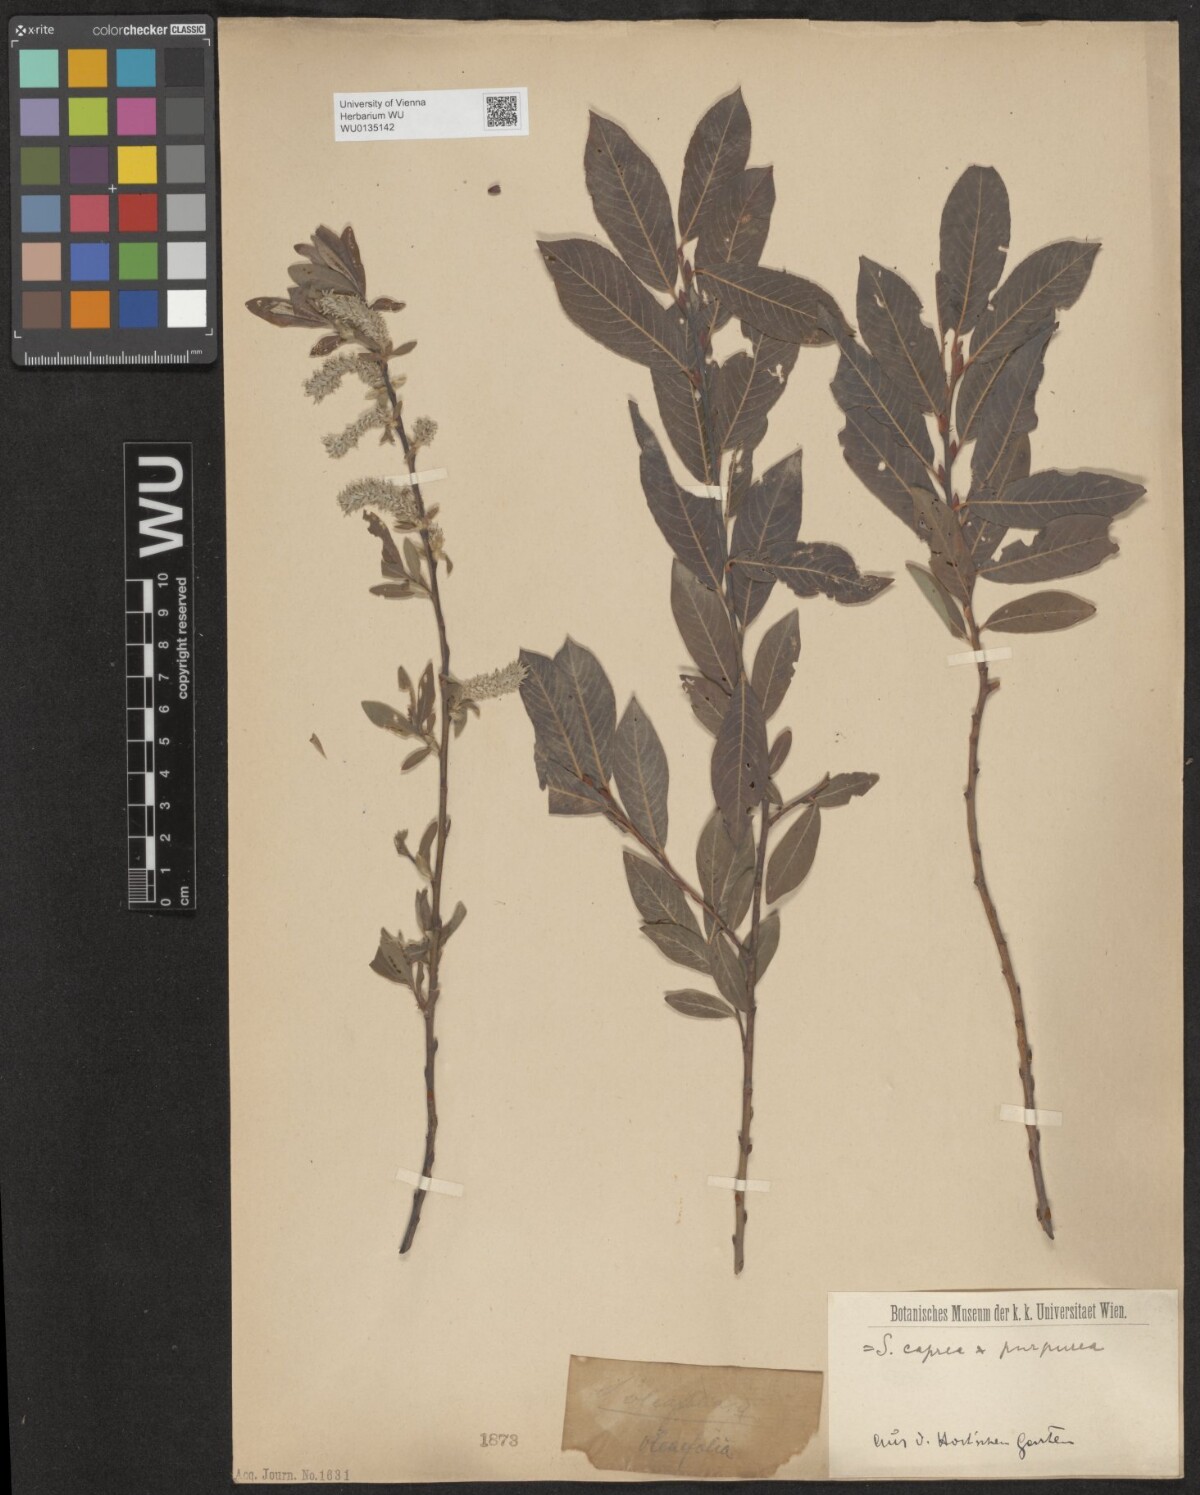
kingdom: Plantae
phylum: Tracheophyta
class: Magnoliopsida
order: Malpighiales
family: Salicaceae
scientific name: Salicaceae
